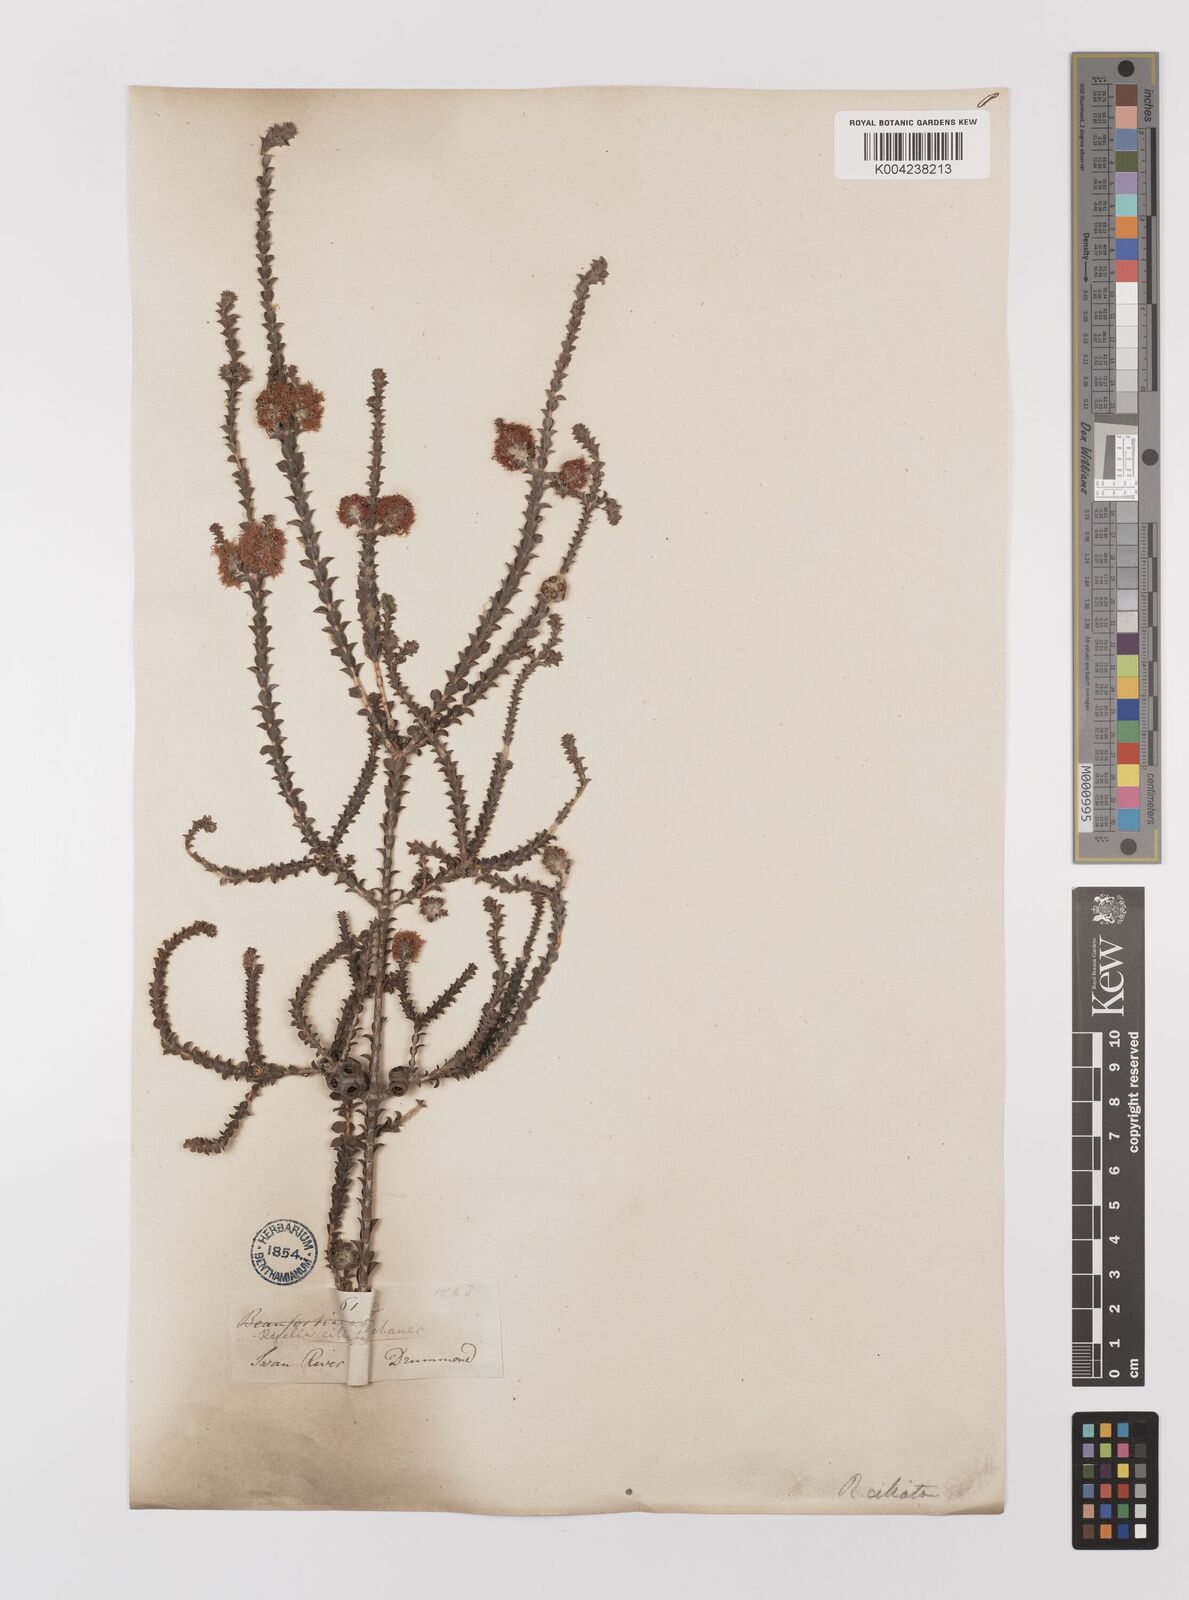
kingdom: Plantae
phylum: Tracheophyta
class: Magnoliopsida
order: Myrtales
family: Myrtaceae
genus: Melaleuca
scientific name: Melaleuca crossota
